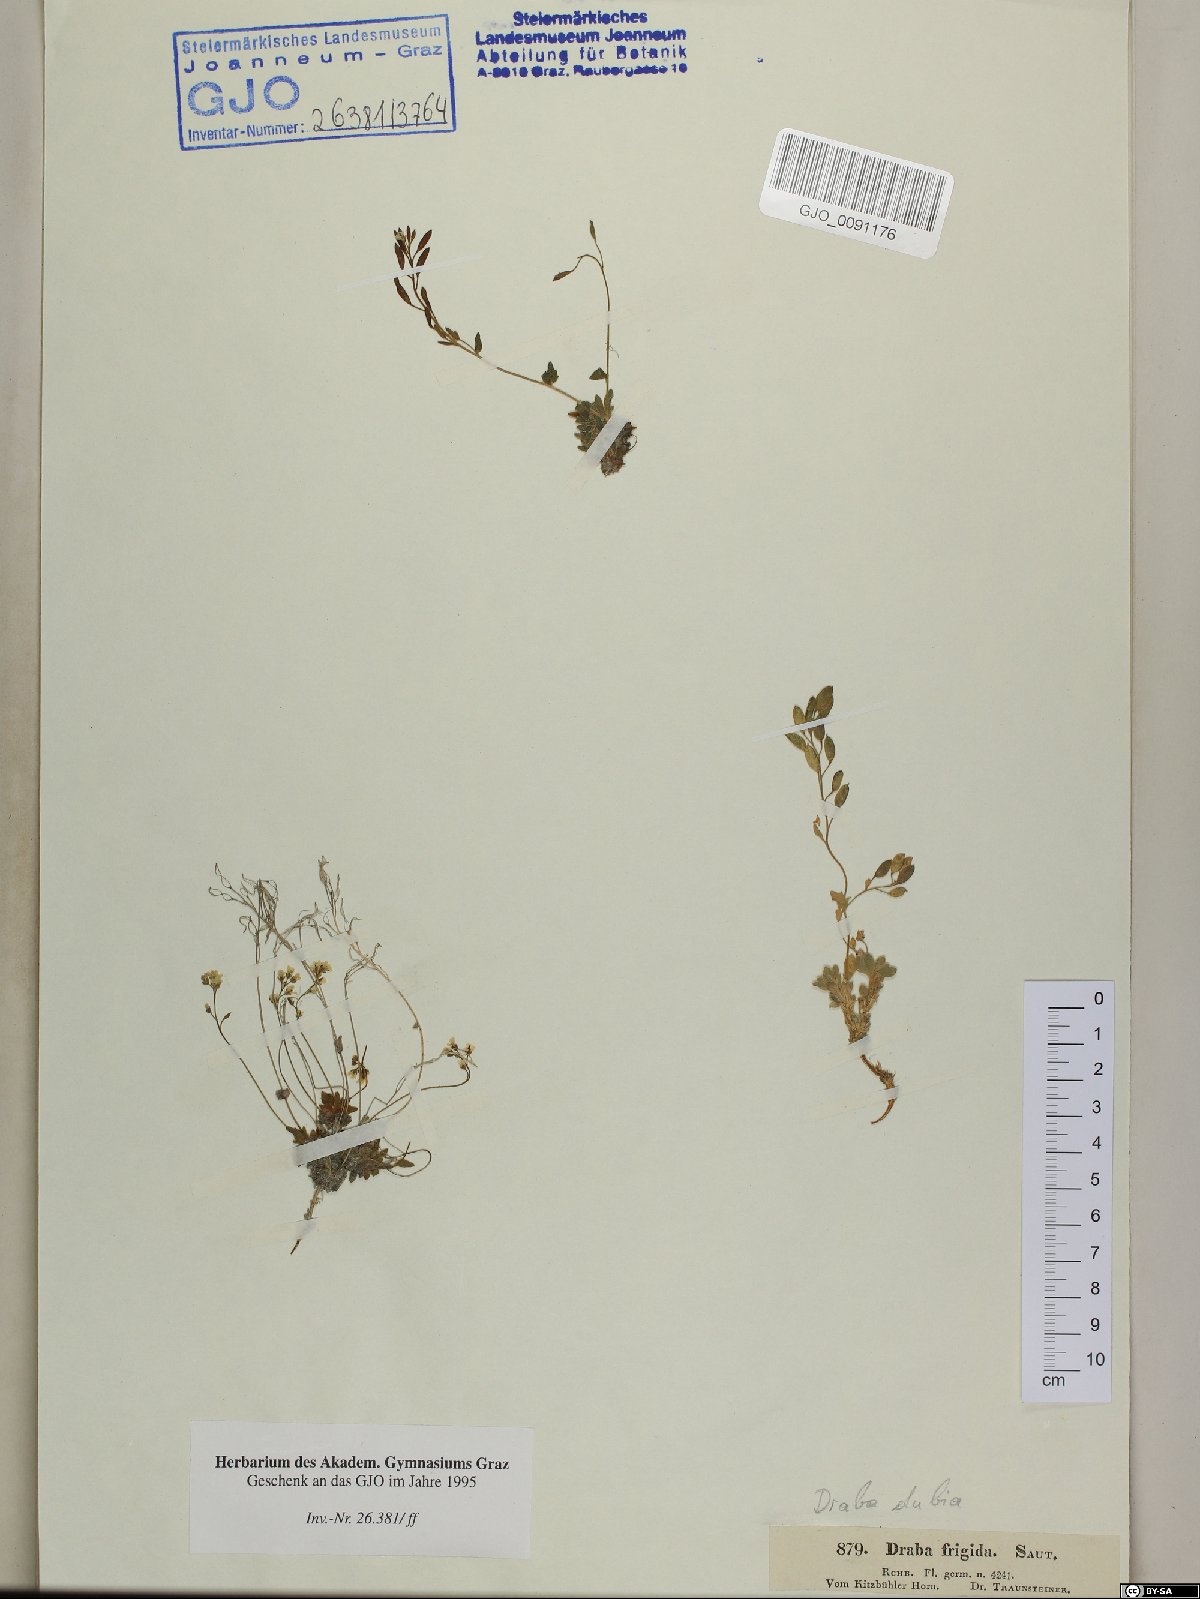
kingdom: Plantae
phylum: Tracheophyta
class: Magnoliopsida
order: Brassicales
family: Brassicaceae
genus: Draba
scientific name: Draba dubia
